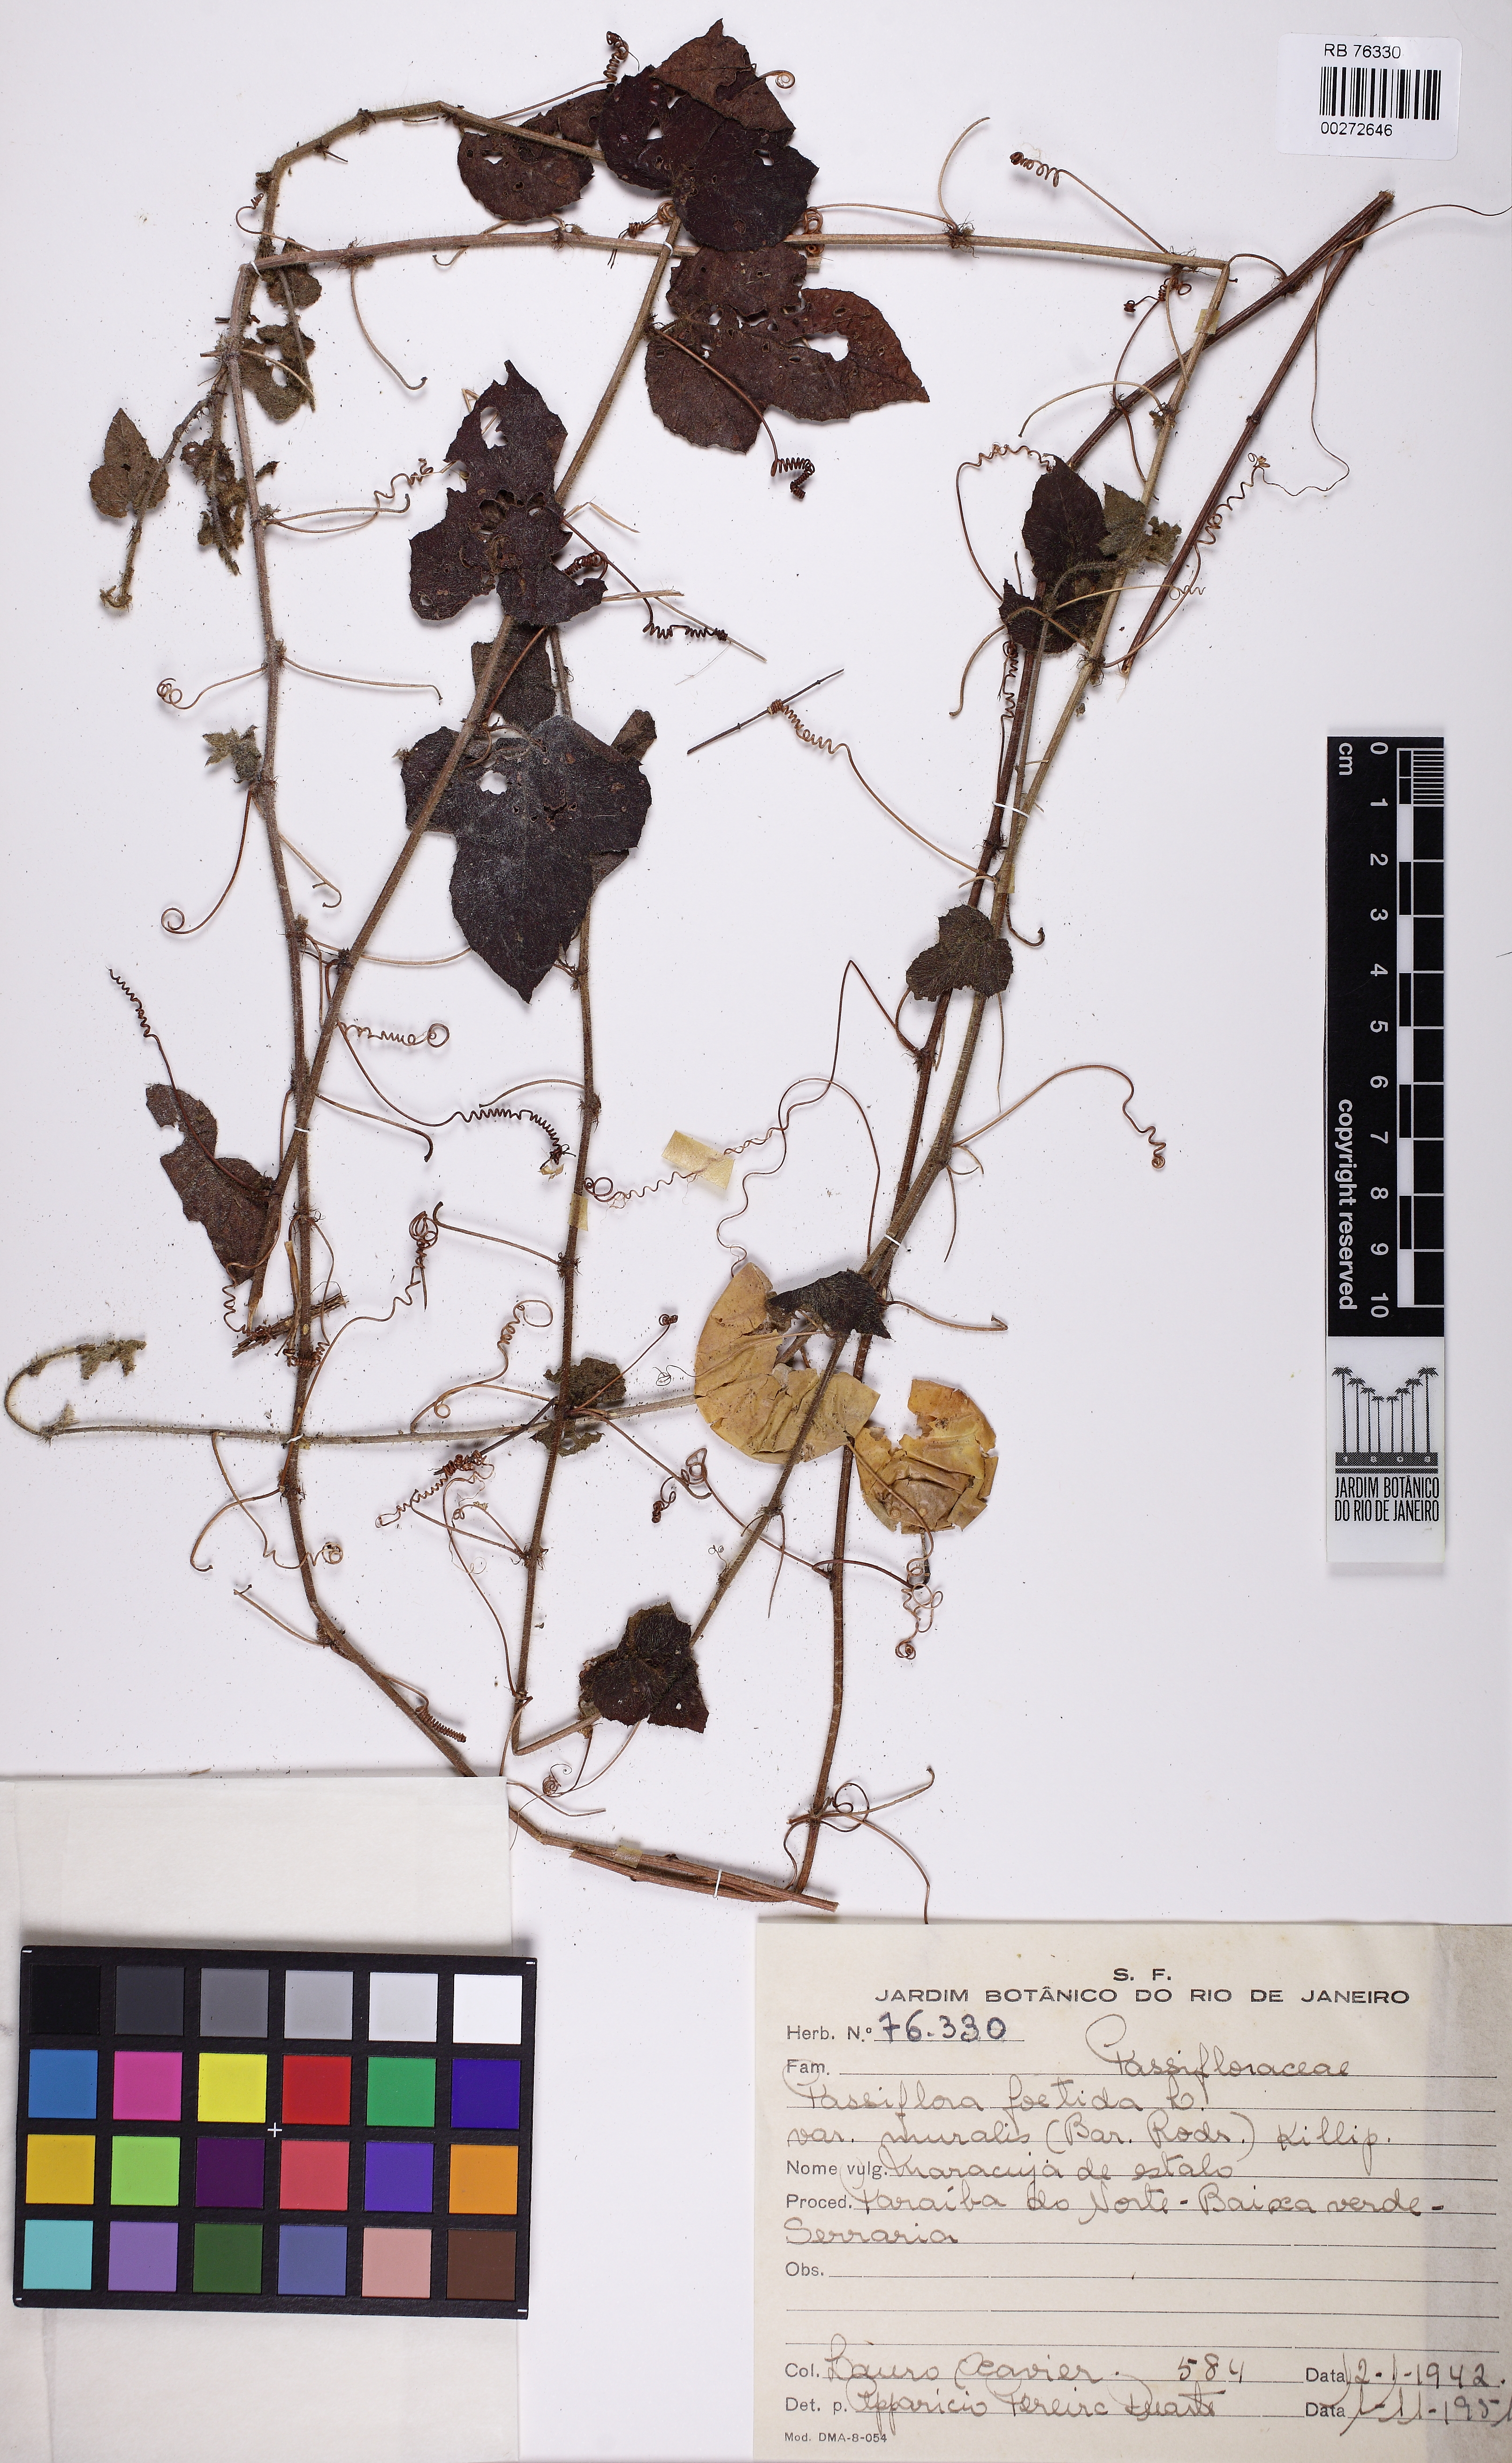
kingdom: Plantae
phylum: Tracheophyta
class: Magnoliopsida
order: Malpighiales
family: Passifloraceae
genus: Passiflora
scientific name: Passiflora foetida
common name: Fetid passionflower
